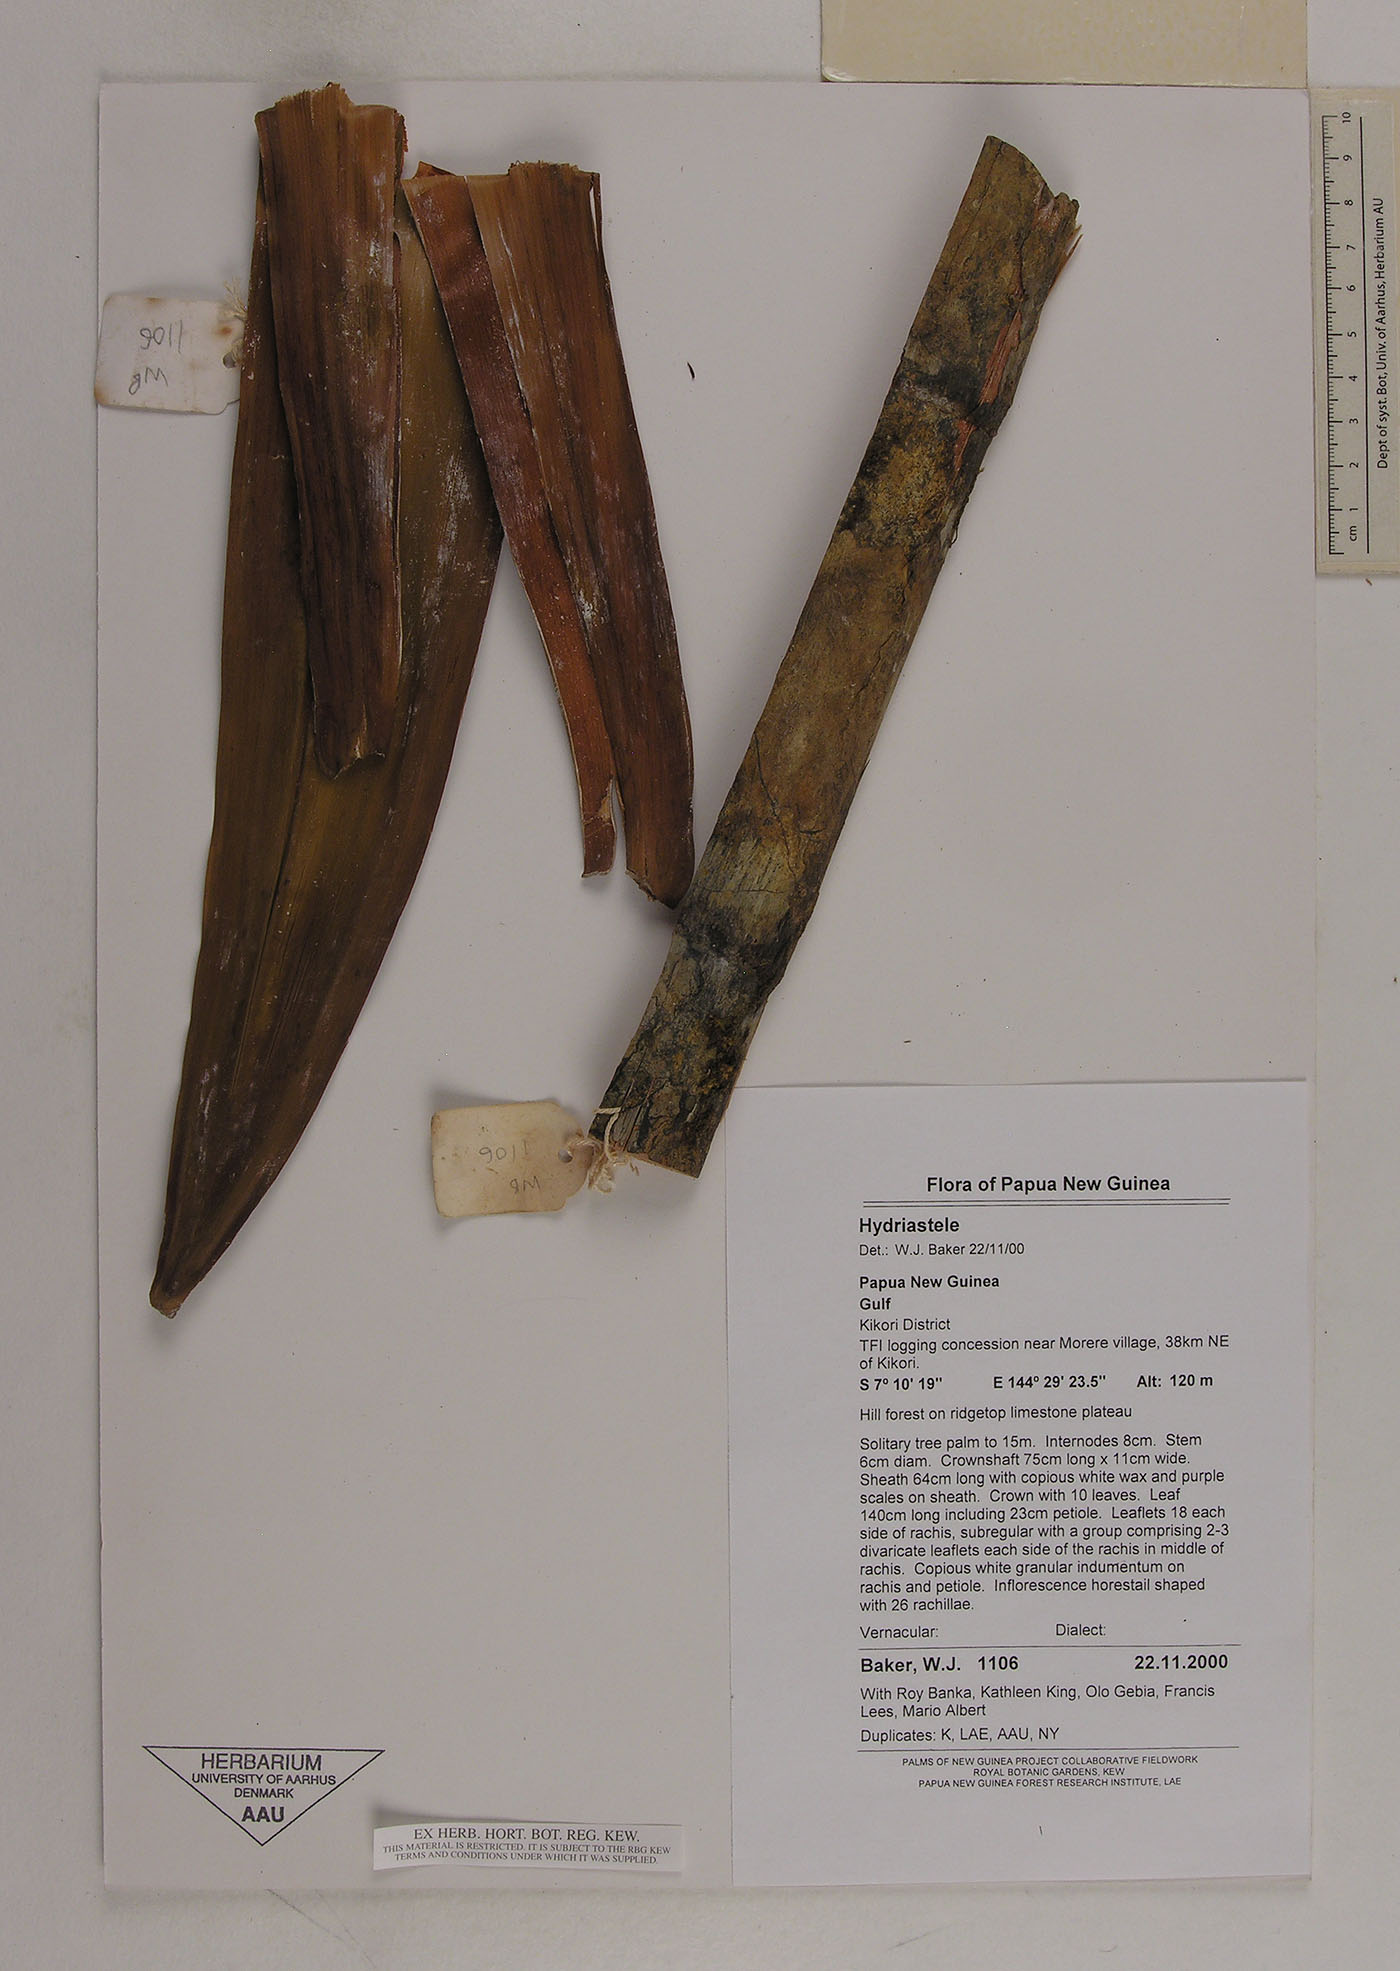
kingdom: Plantae
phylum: Tracheophyta
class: Liliopsida
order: Arecales
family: Arecaceae
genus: Hydriastele
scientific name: Hydriastele
